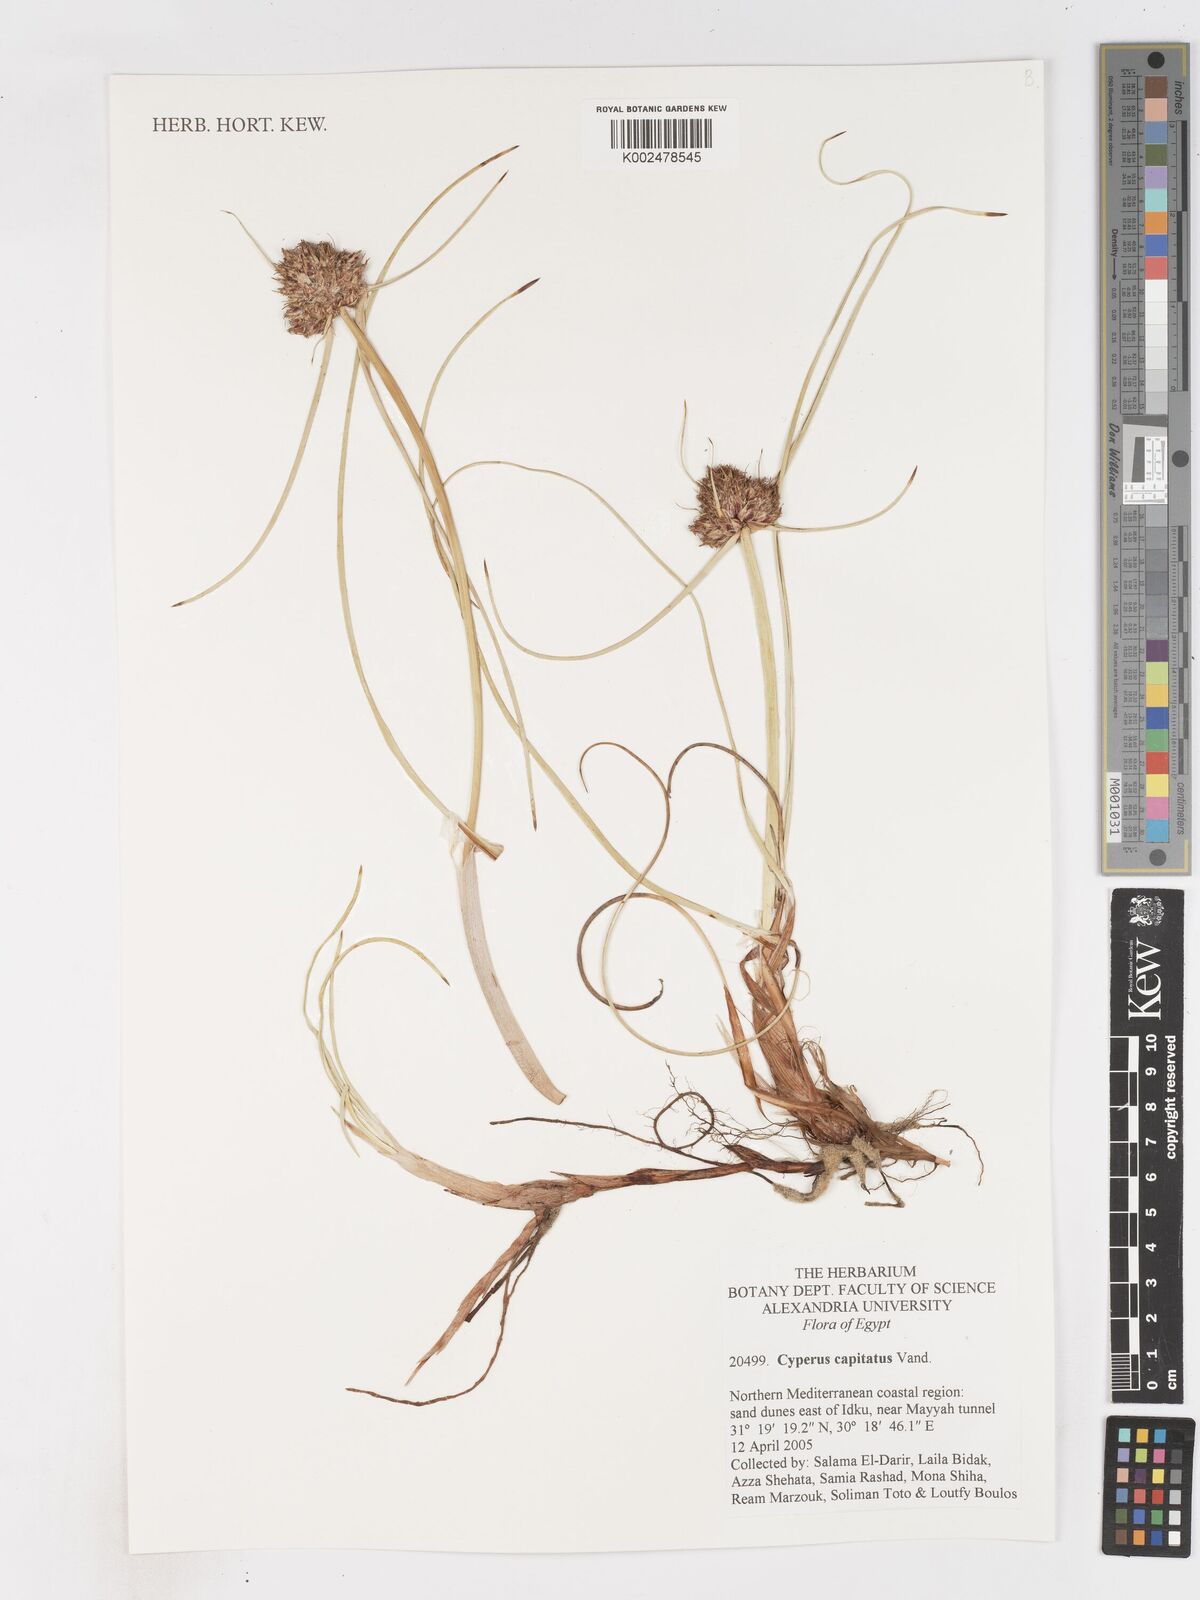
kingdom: Plantae
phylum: Tracheophyta
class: Liliopsida
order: Poales
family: Cyperaceae
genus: Cyperus
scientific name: Cyperus capitatus
